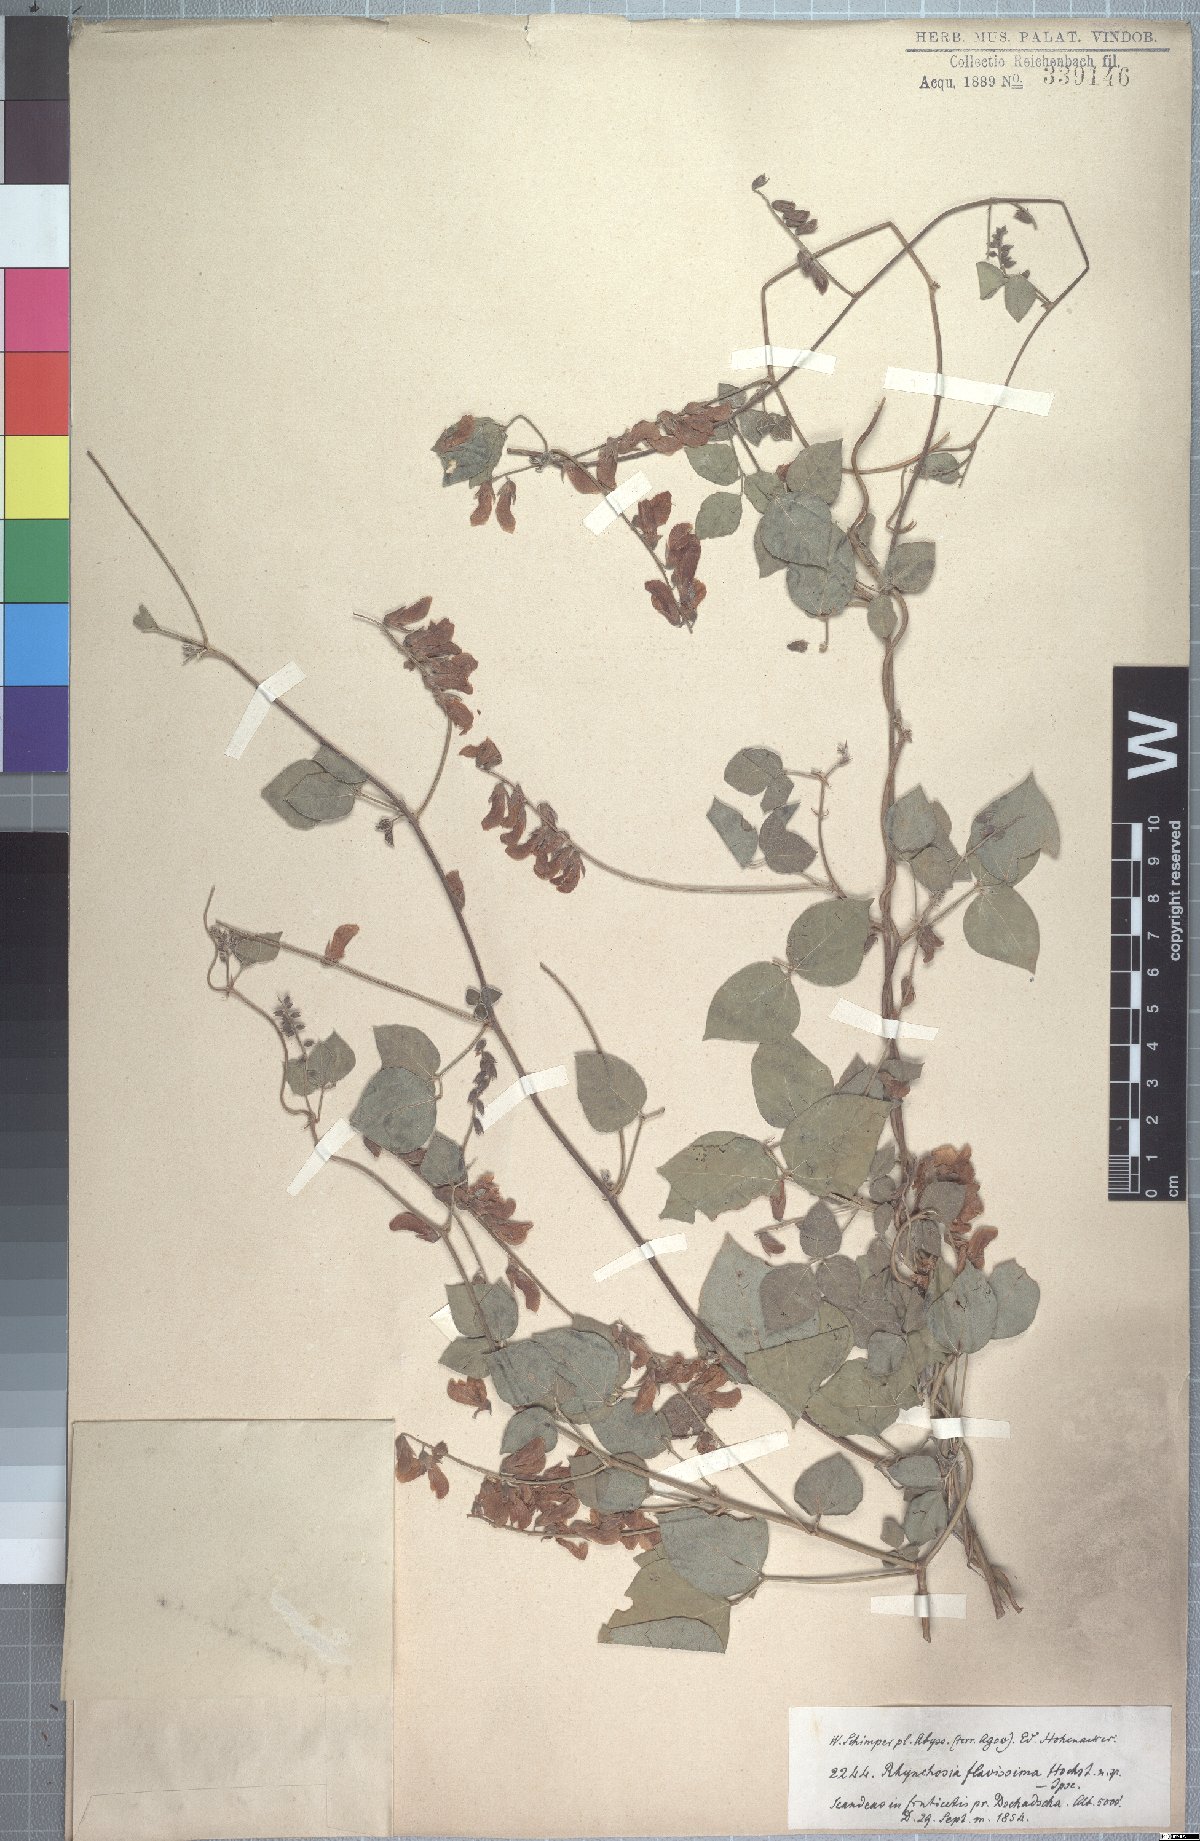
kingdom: Plantae
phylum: Tracheophyta
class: Magnoliopsida
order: Fabales
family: Fabaceae
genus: Rhynchosia
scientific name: Rhynchosia malacophylla
